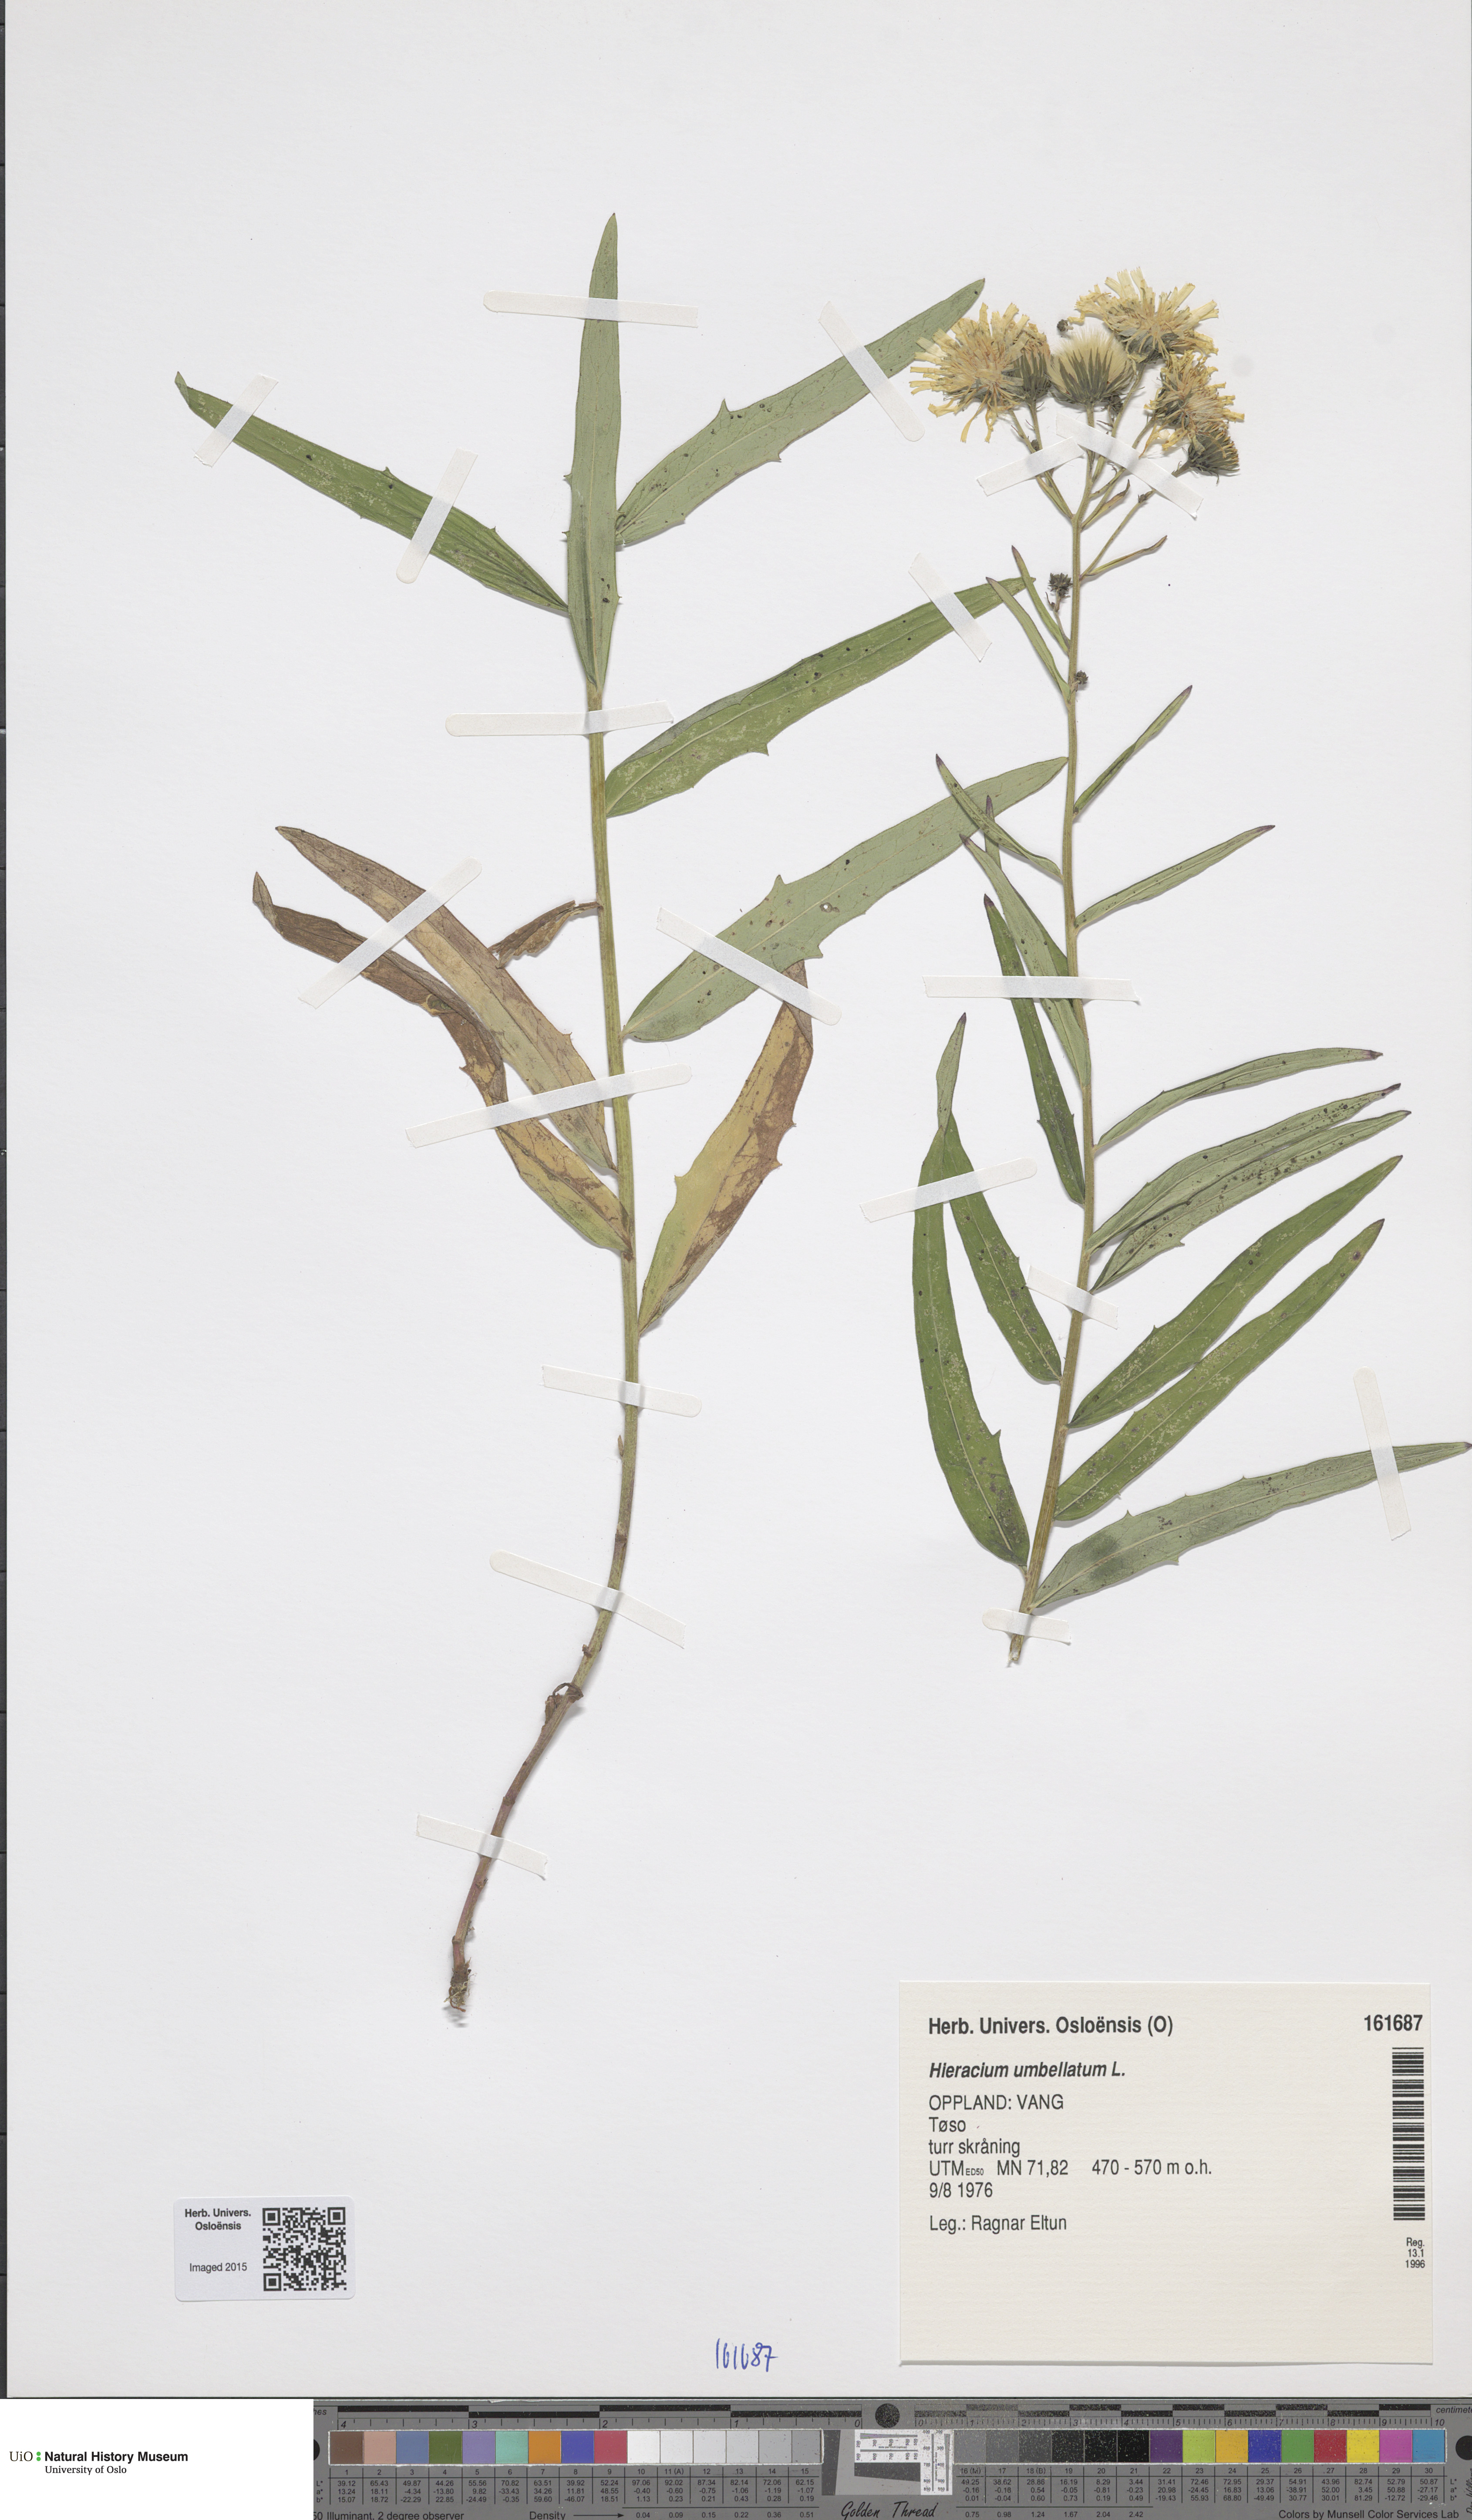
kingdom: Plantae
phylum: Tracheophyta
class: Magnoliopsida
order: Asterales
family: Asteraceae
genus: Hieracium
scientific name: Hieracium umbellatum
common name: Northern hawkweed
